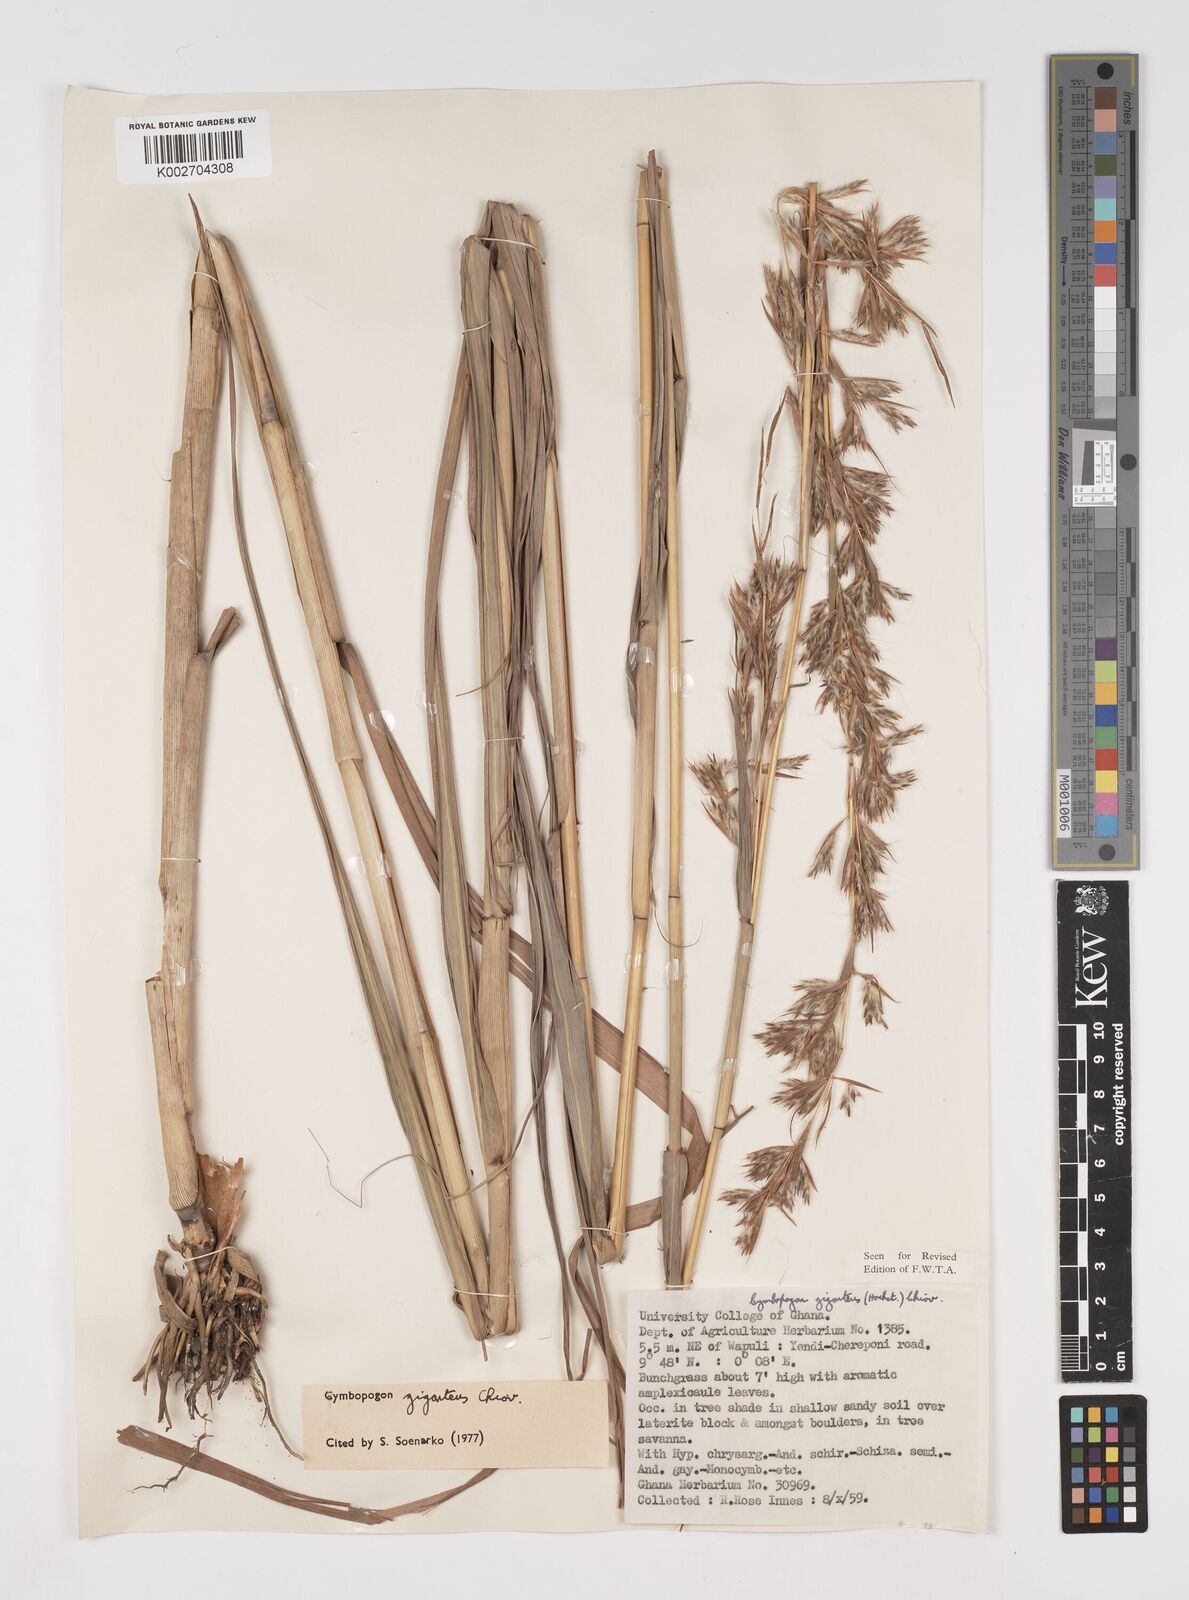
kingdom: Plantae
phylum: Tracheophyta
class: Liliopsida
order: Poales
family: Poaceae
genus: Cymbopogon
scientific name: Cymbopogon giganteus
